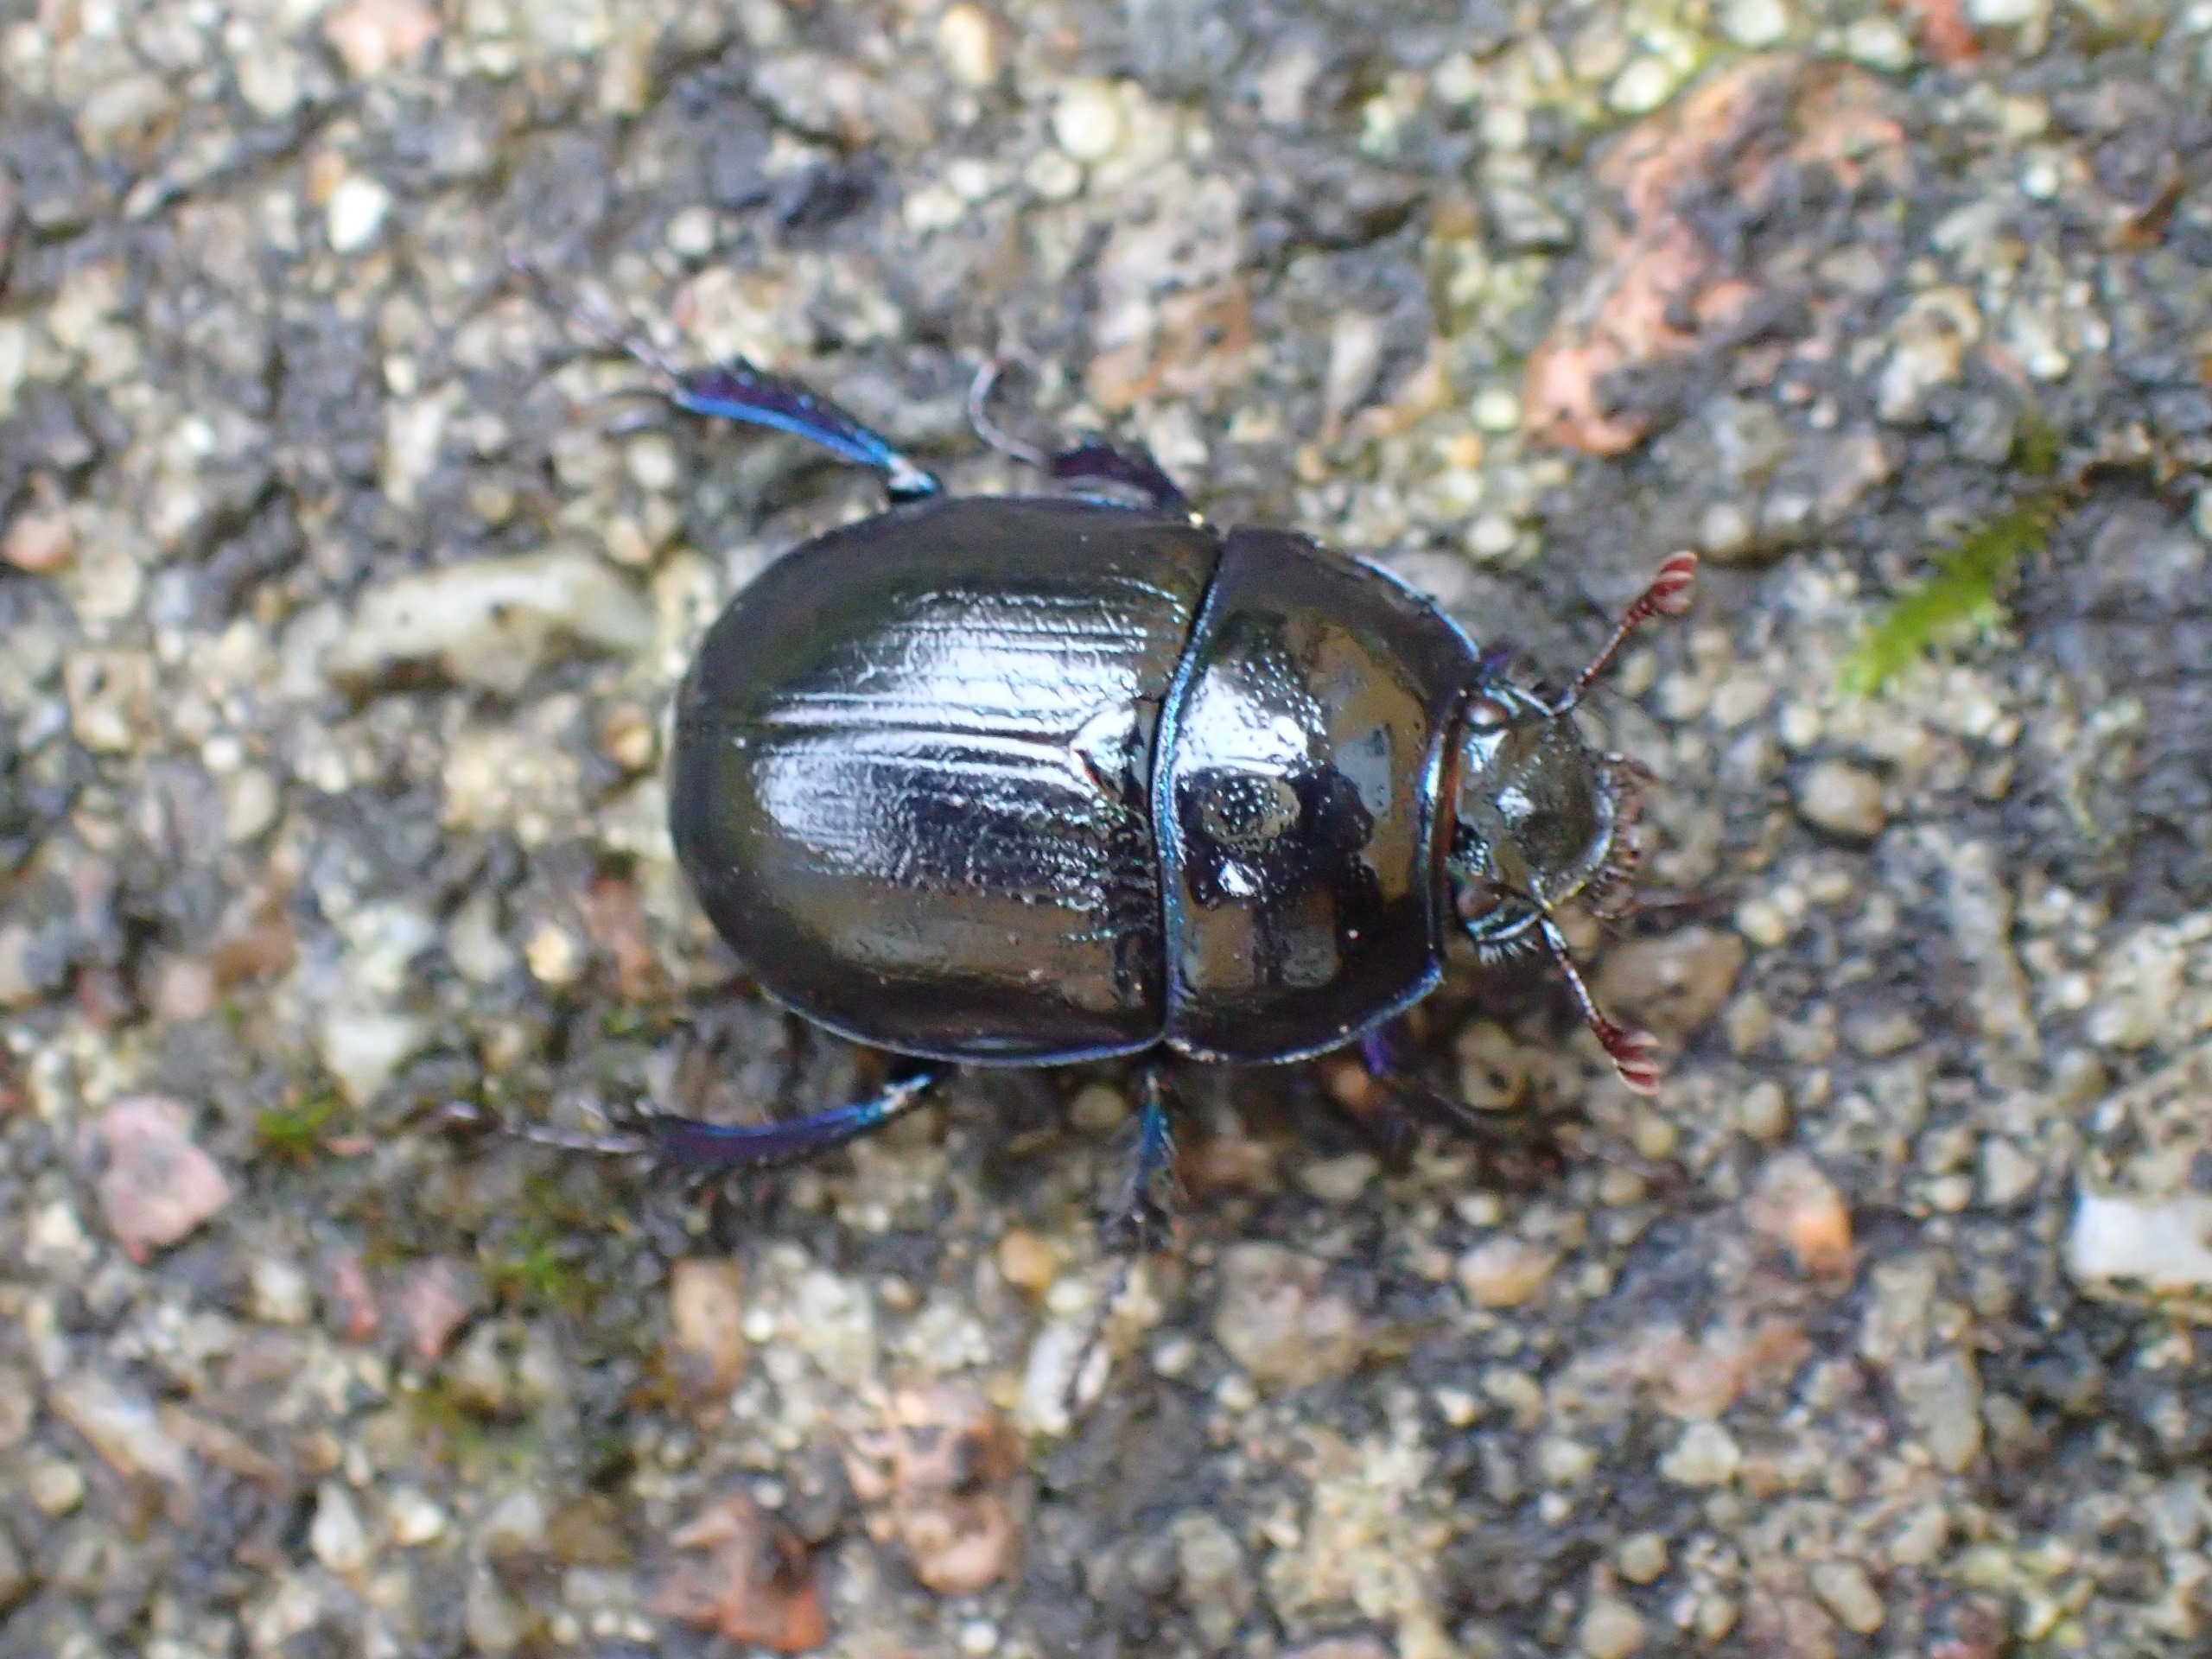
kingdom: Animalia
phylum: Arthropoda
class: Insecta
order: Coleoptera
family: Geotrupidae
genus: Anoplotrupes
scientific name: Anoplotrupes stercorosus
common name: Skovskarnbasse
